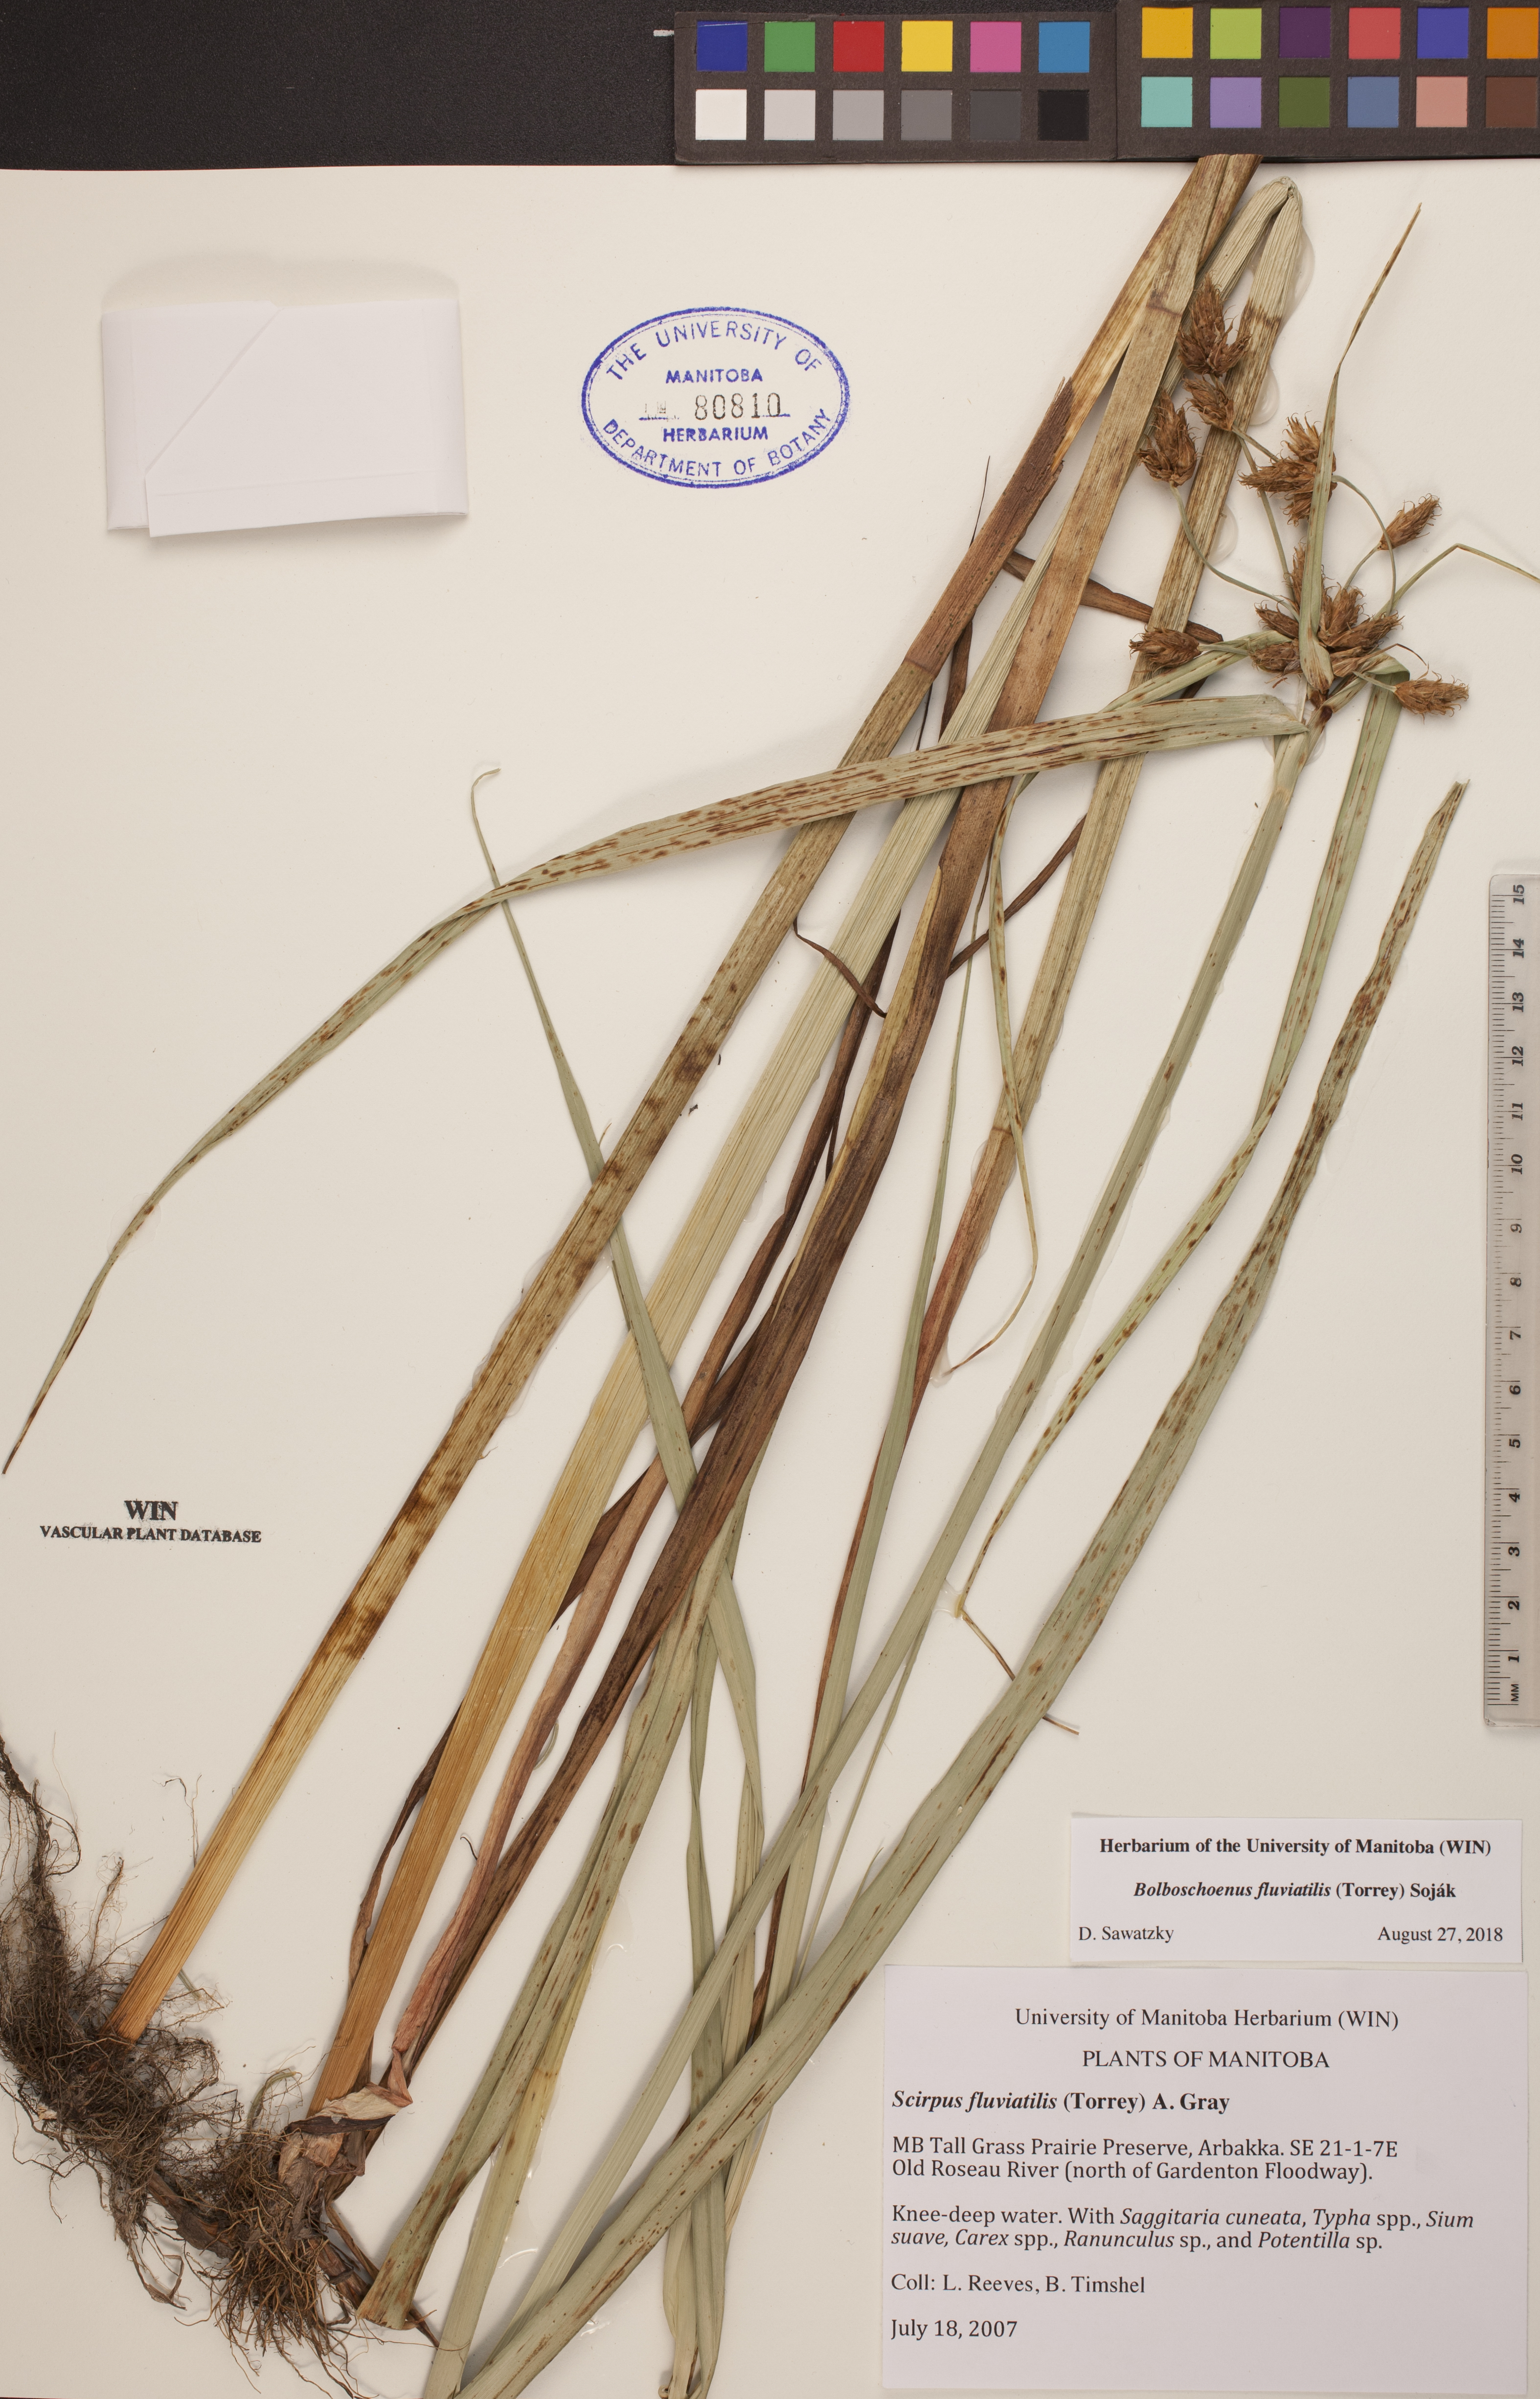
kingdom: Plantae
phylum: Tracheophyta
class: Liliopsida
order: Poales
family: Cyperaceae
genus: Bolboschoenus
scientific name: Bolboschoenus fluviatilis
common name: River bulrush
